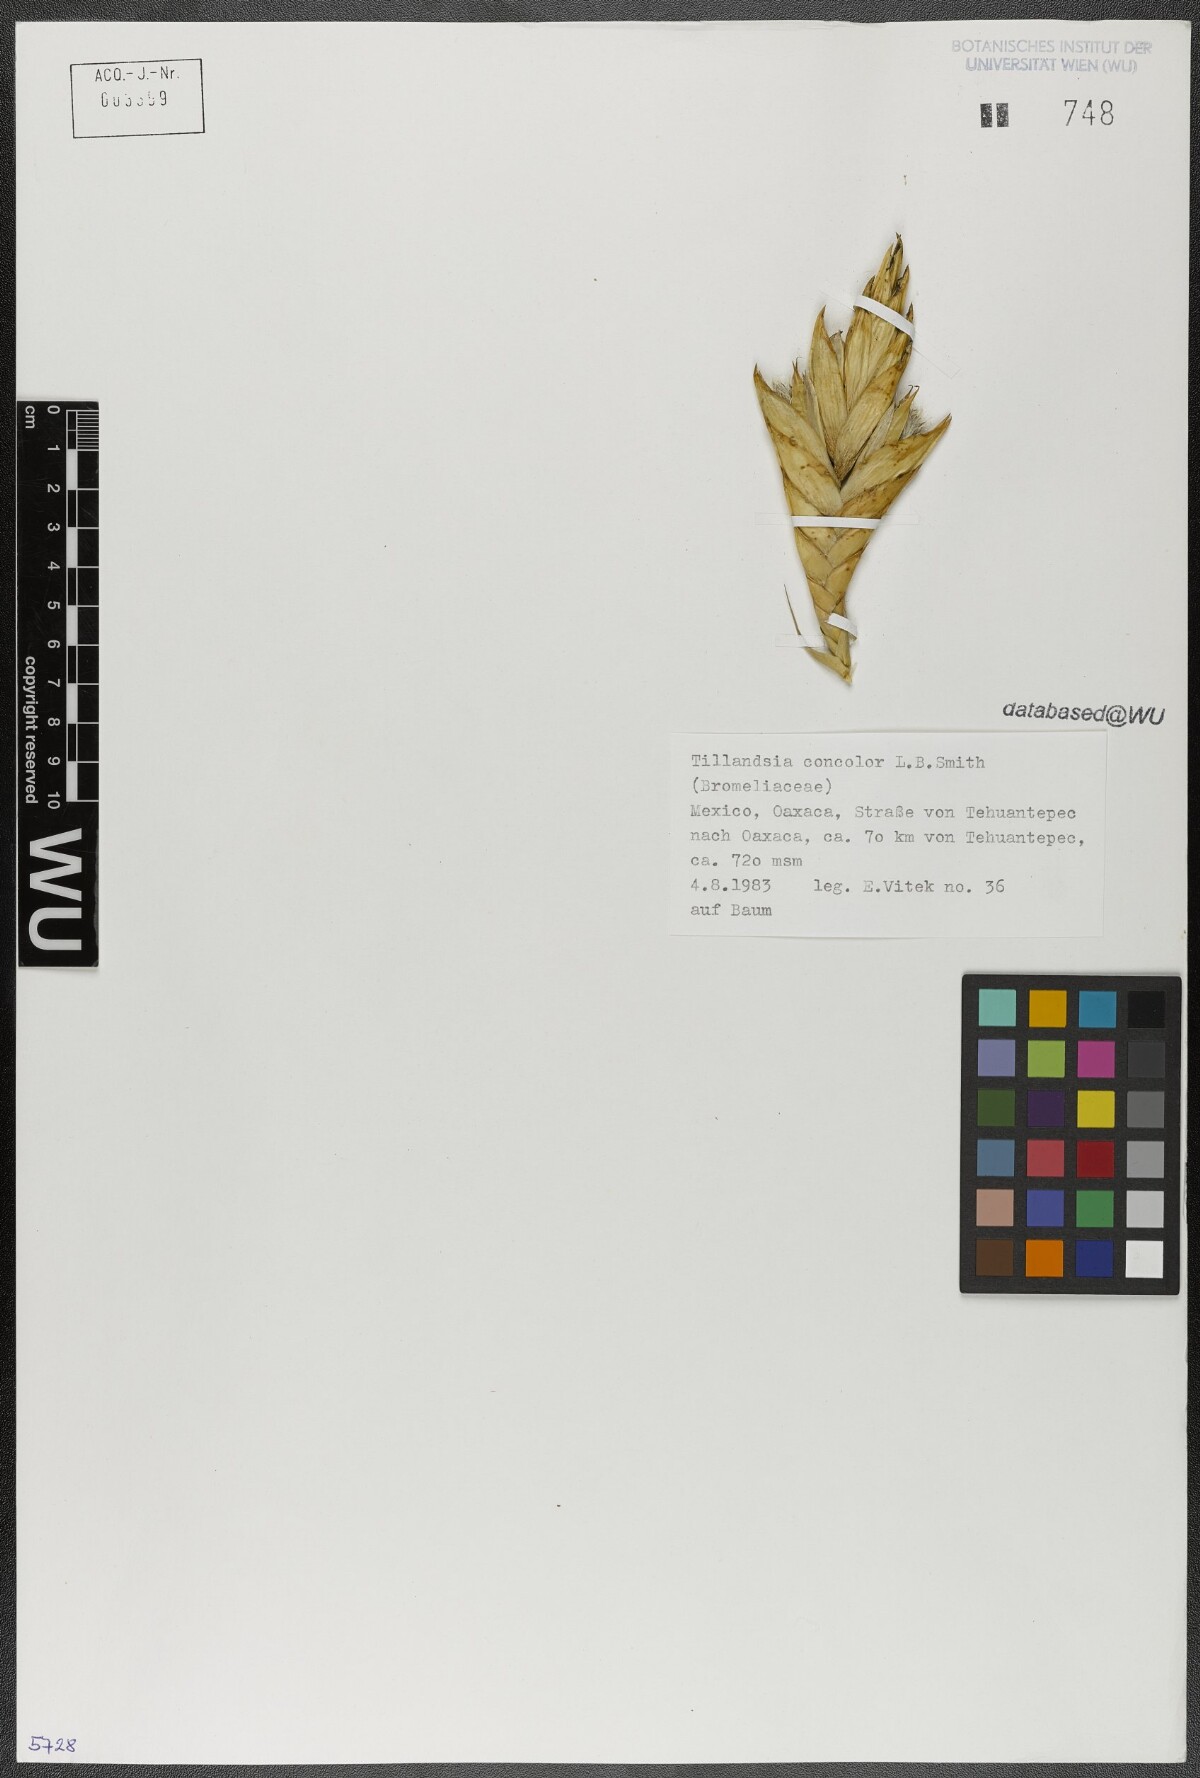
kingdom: Plantae
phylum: Tracheophyta
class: Liliopsida
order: Poales
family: Bromeliaceae
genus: Tillandsia
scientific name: Tillandsia concolor
